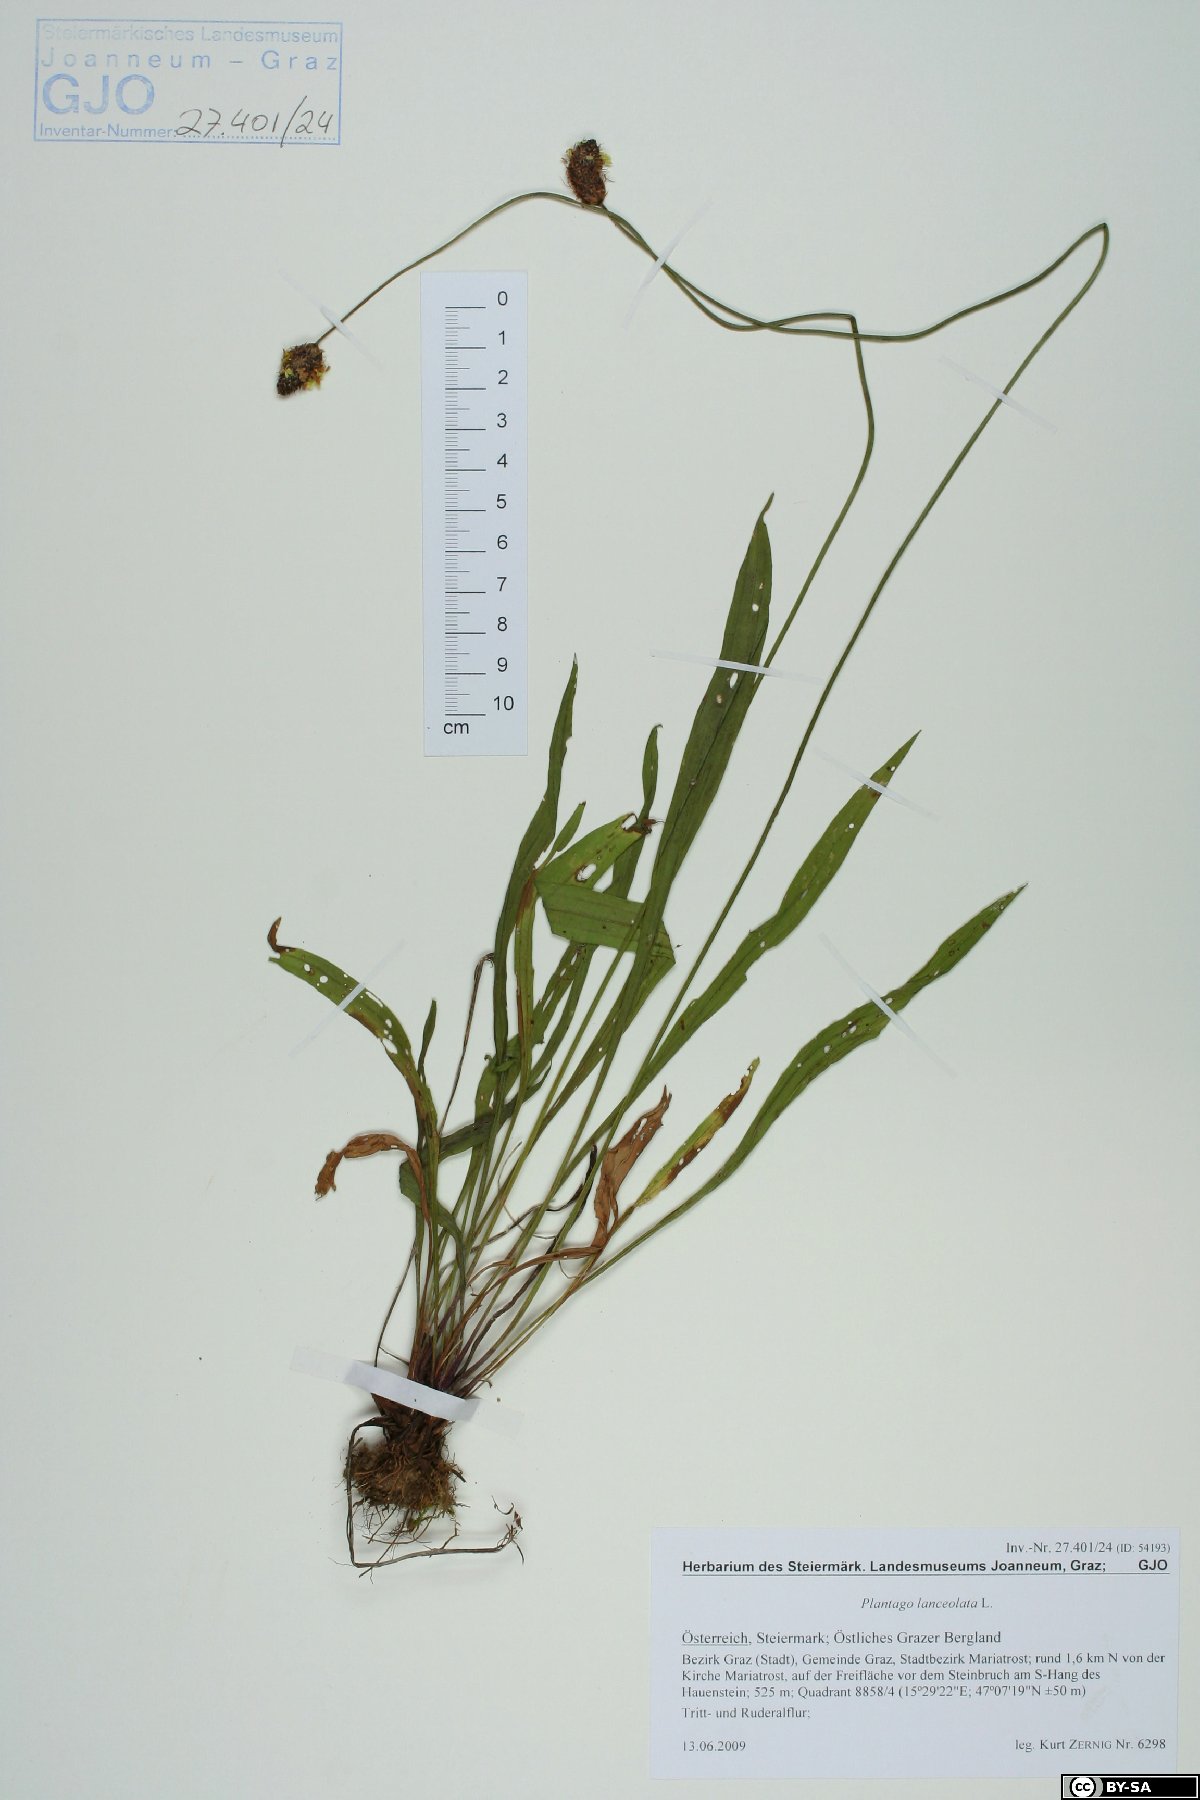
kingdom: Plantae
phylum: Tracheophyta
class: Magnoliopsida
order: Lamiales
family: Plantaginaceae
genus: Plantago
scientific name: Plantago lanceolata
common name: Ribwort plantain
